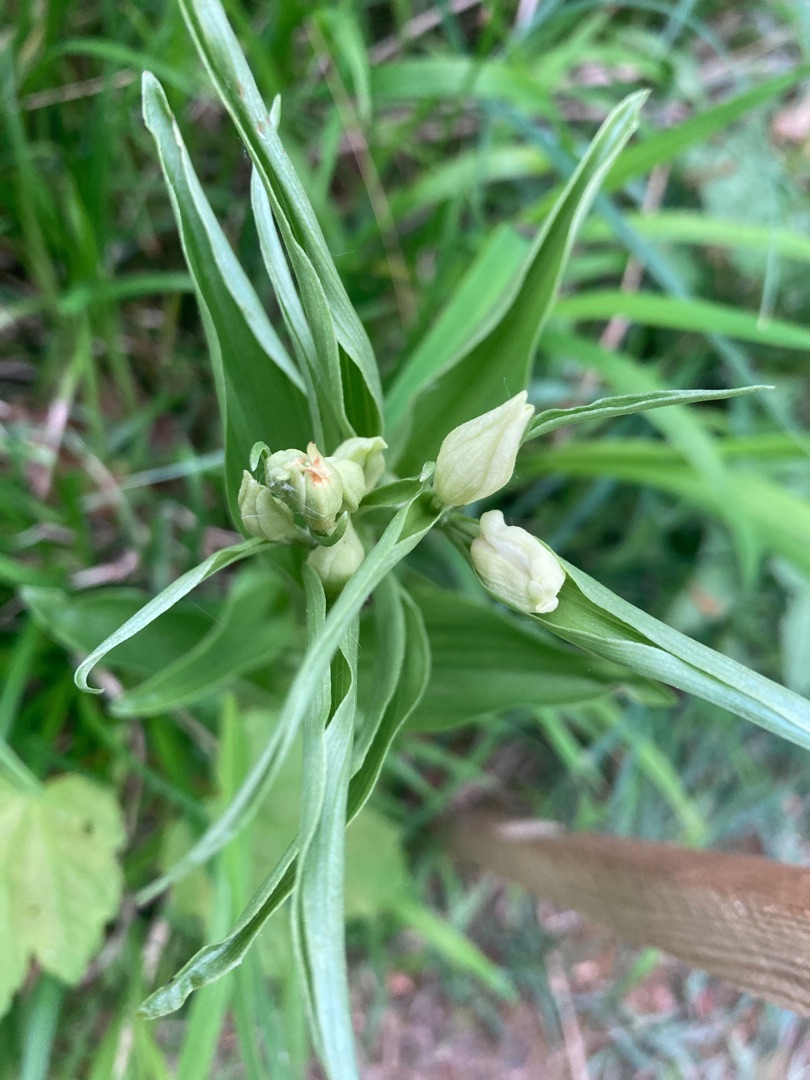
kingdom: Plantae
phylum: Tracheophyta
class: Liliopsida
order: Asparagales
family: Orchidaceae
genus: Cephalanthera
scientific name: Cephalanthera damasonium
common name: Hvidgul skovlilje
